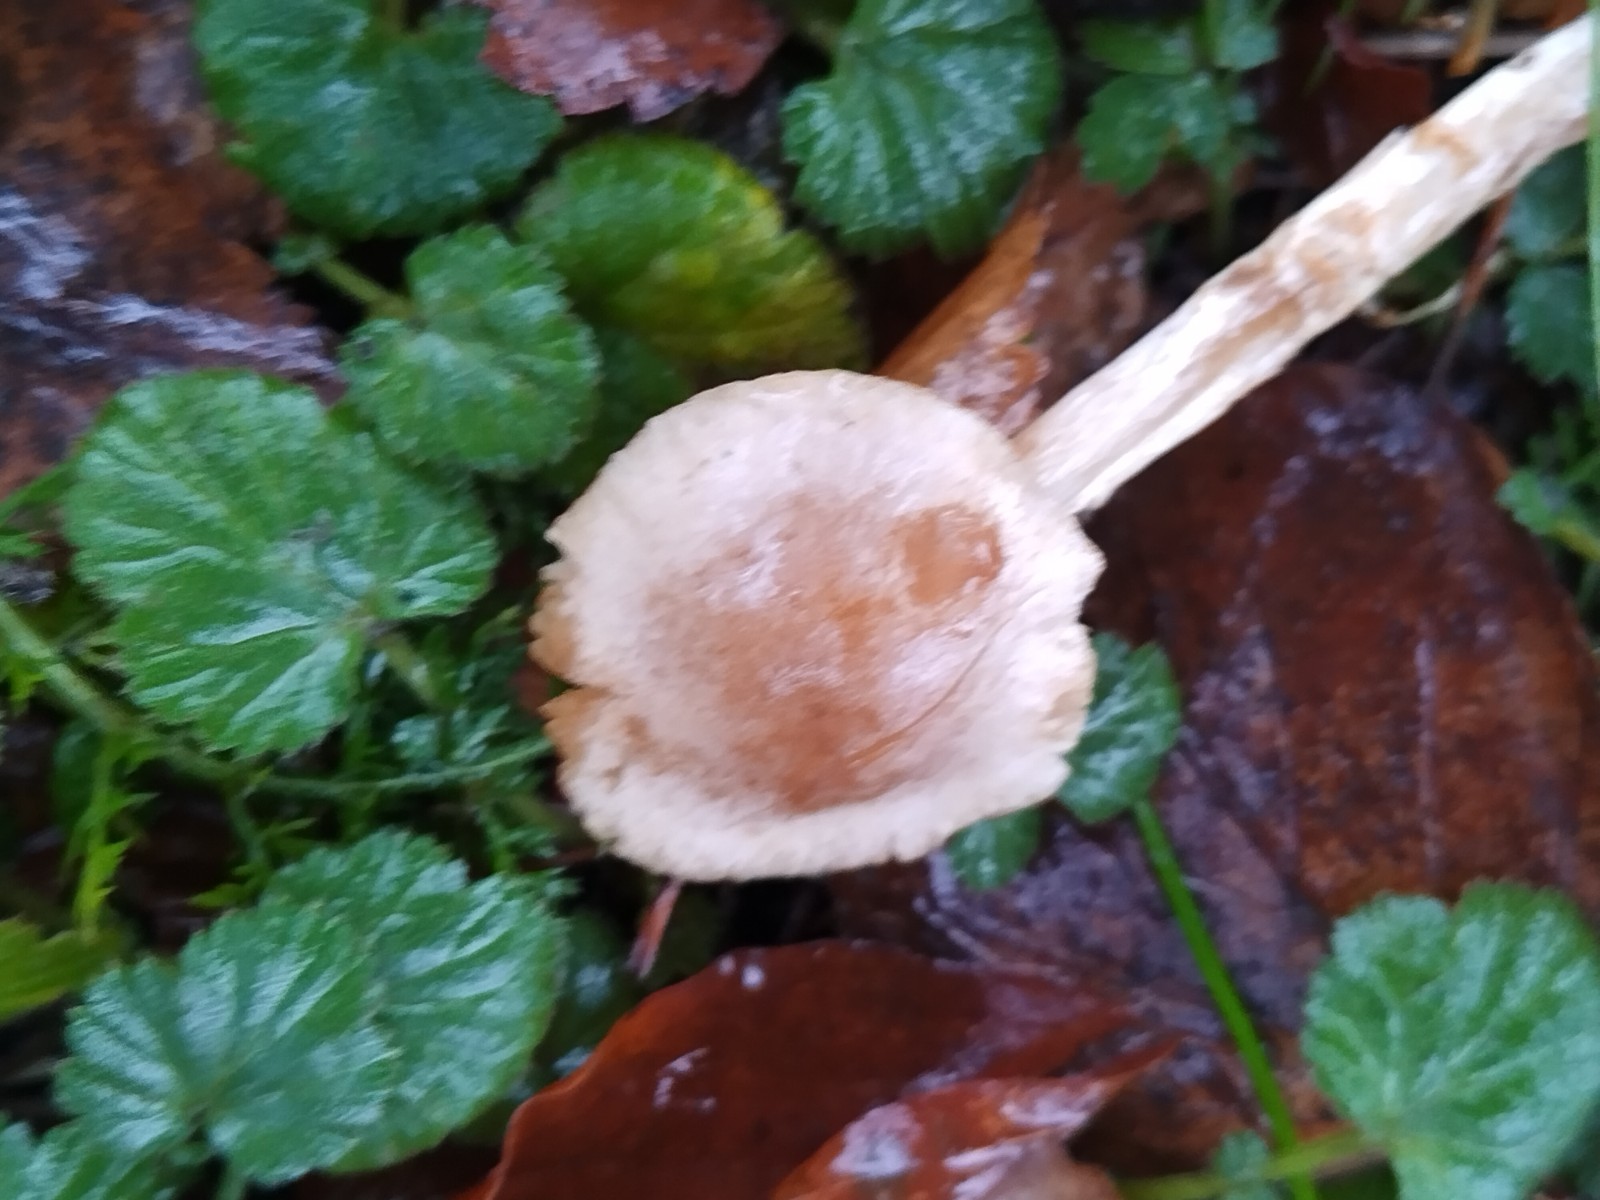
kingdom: Fungi
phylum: Basidiomycota
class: Agaricomycetes
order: Agaricales
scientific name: Agaricales
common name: champignonordenen
